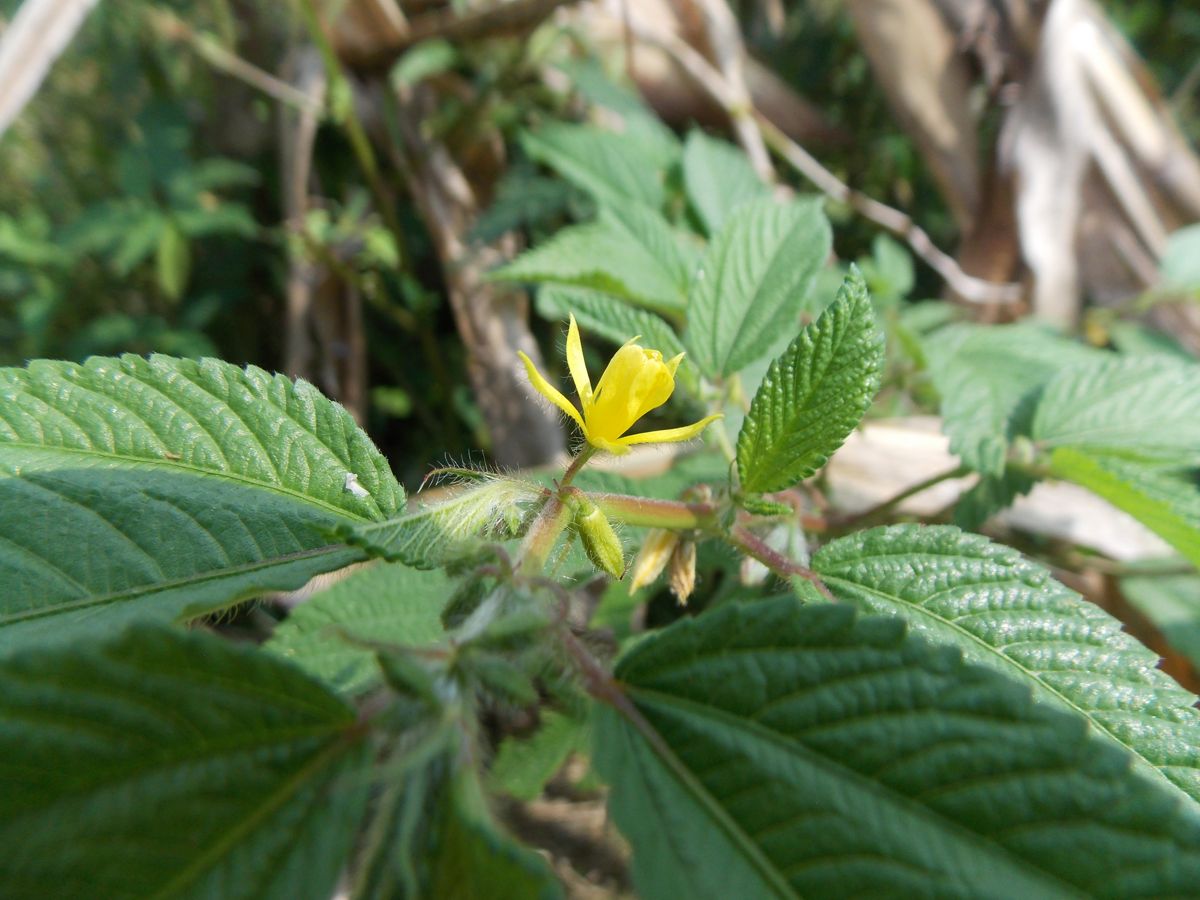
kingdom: Plantae
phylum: Tracheophyta
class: Magnoliopsida
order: Malvales
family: Malvaceae
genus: Corchorus
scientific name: Corchorus orinocensis
